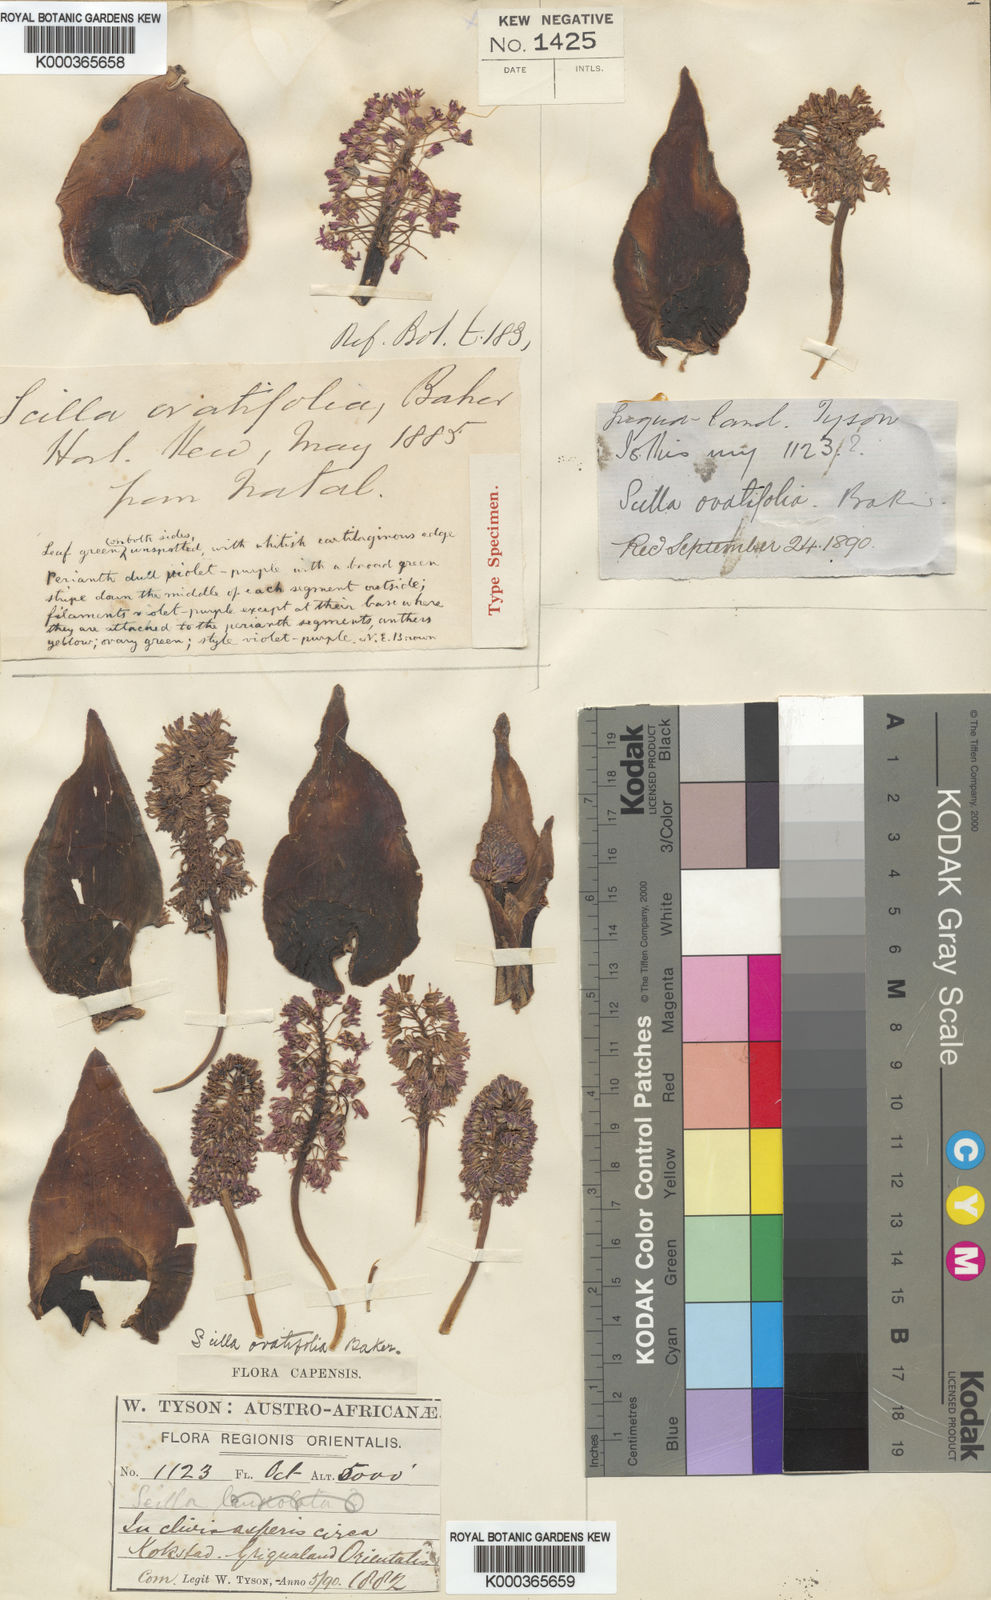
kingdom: Plantae
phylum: Tracheophyta
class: Liliopsida
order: Asparagales
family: Asparagaceae
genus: Ledebouria
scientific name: Ledebouria ovatifolia
